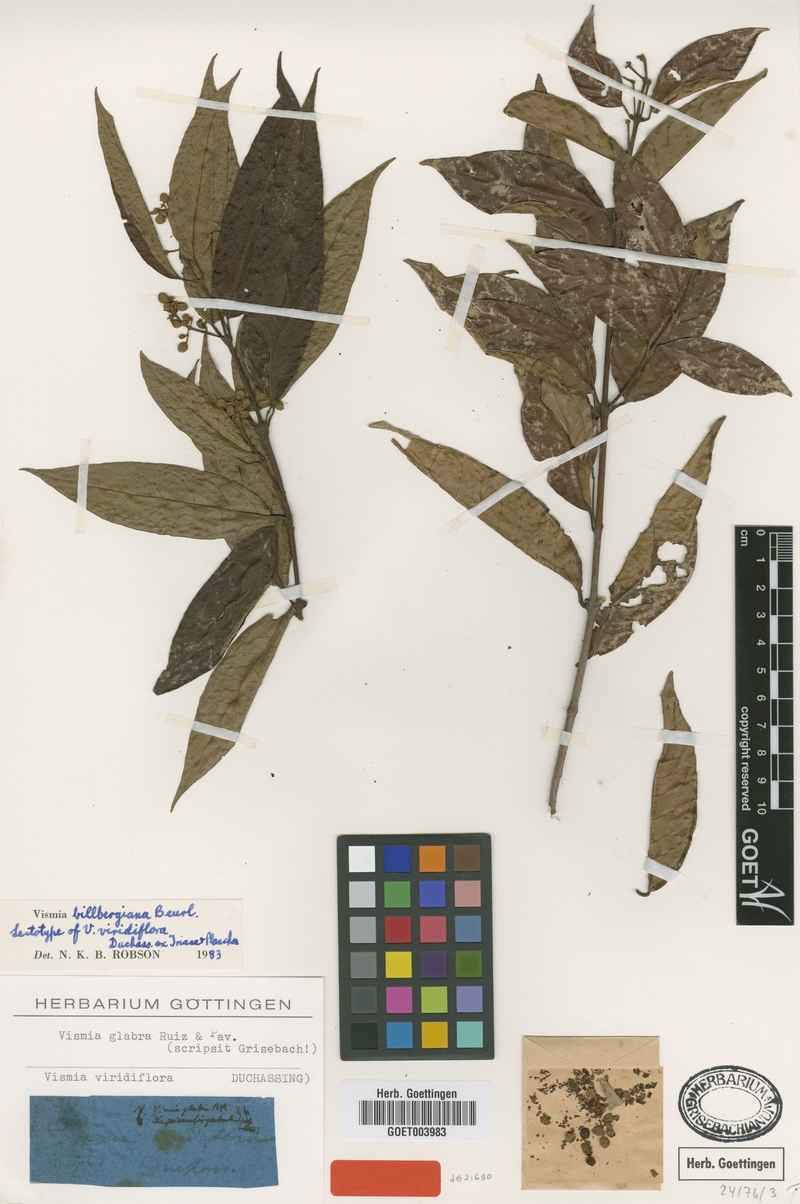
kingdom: Plantae
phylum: Tracheophyta
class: Magnoliopsida
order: Malpighiales
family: Hypericaceae
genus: Vismia
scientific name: Vismia billbergiana
